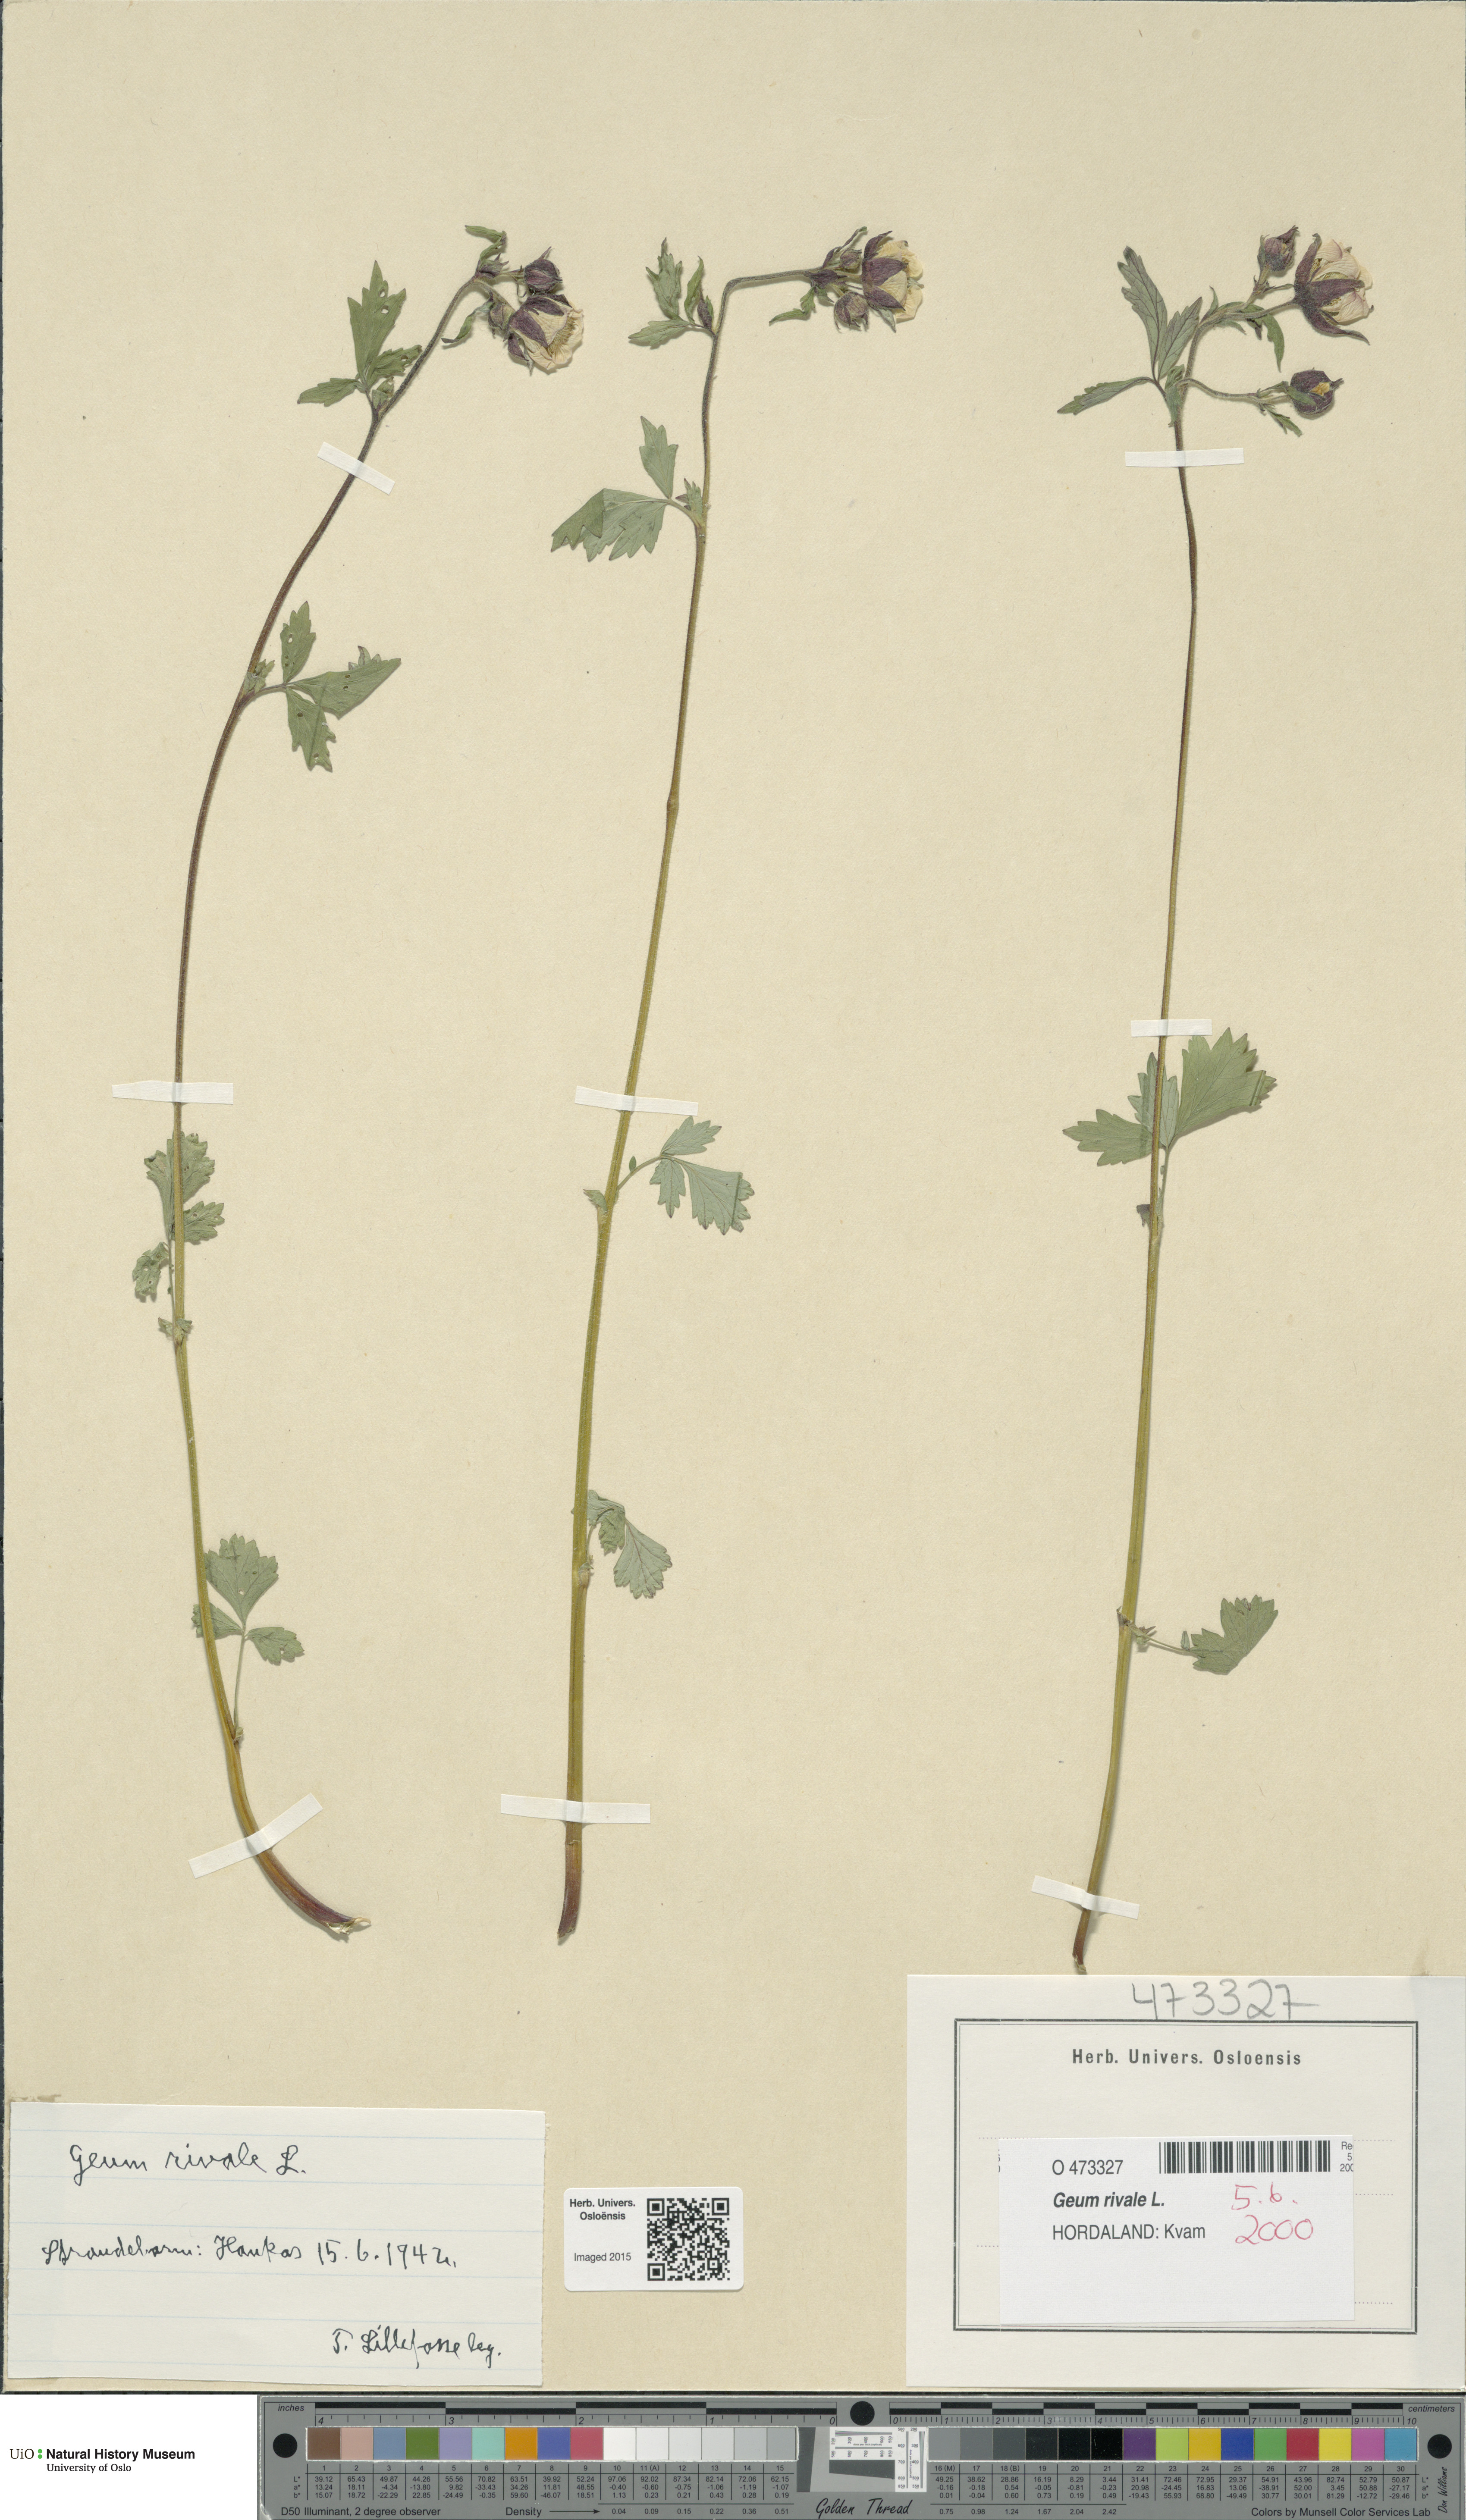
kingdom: Plantae
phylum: Tracheophyta
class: Magnoliopsida
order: Rosales
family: Rosaceae
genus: Geum
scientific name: Geum rivale
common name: Water avens
